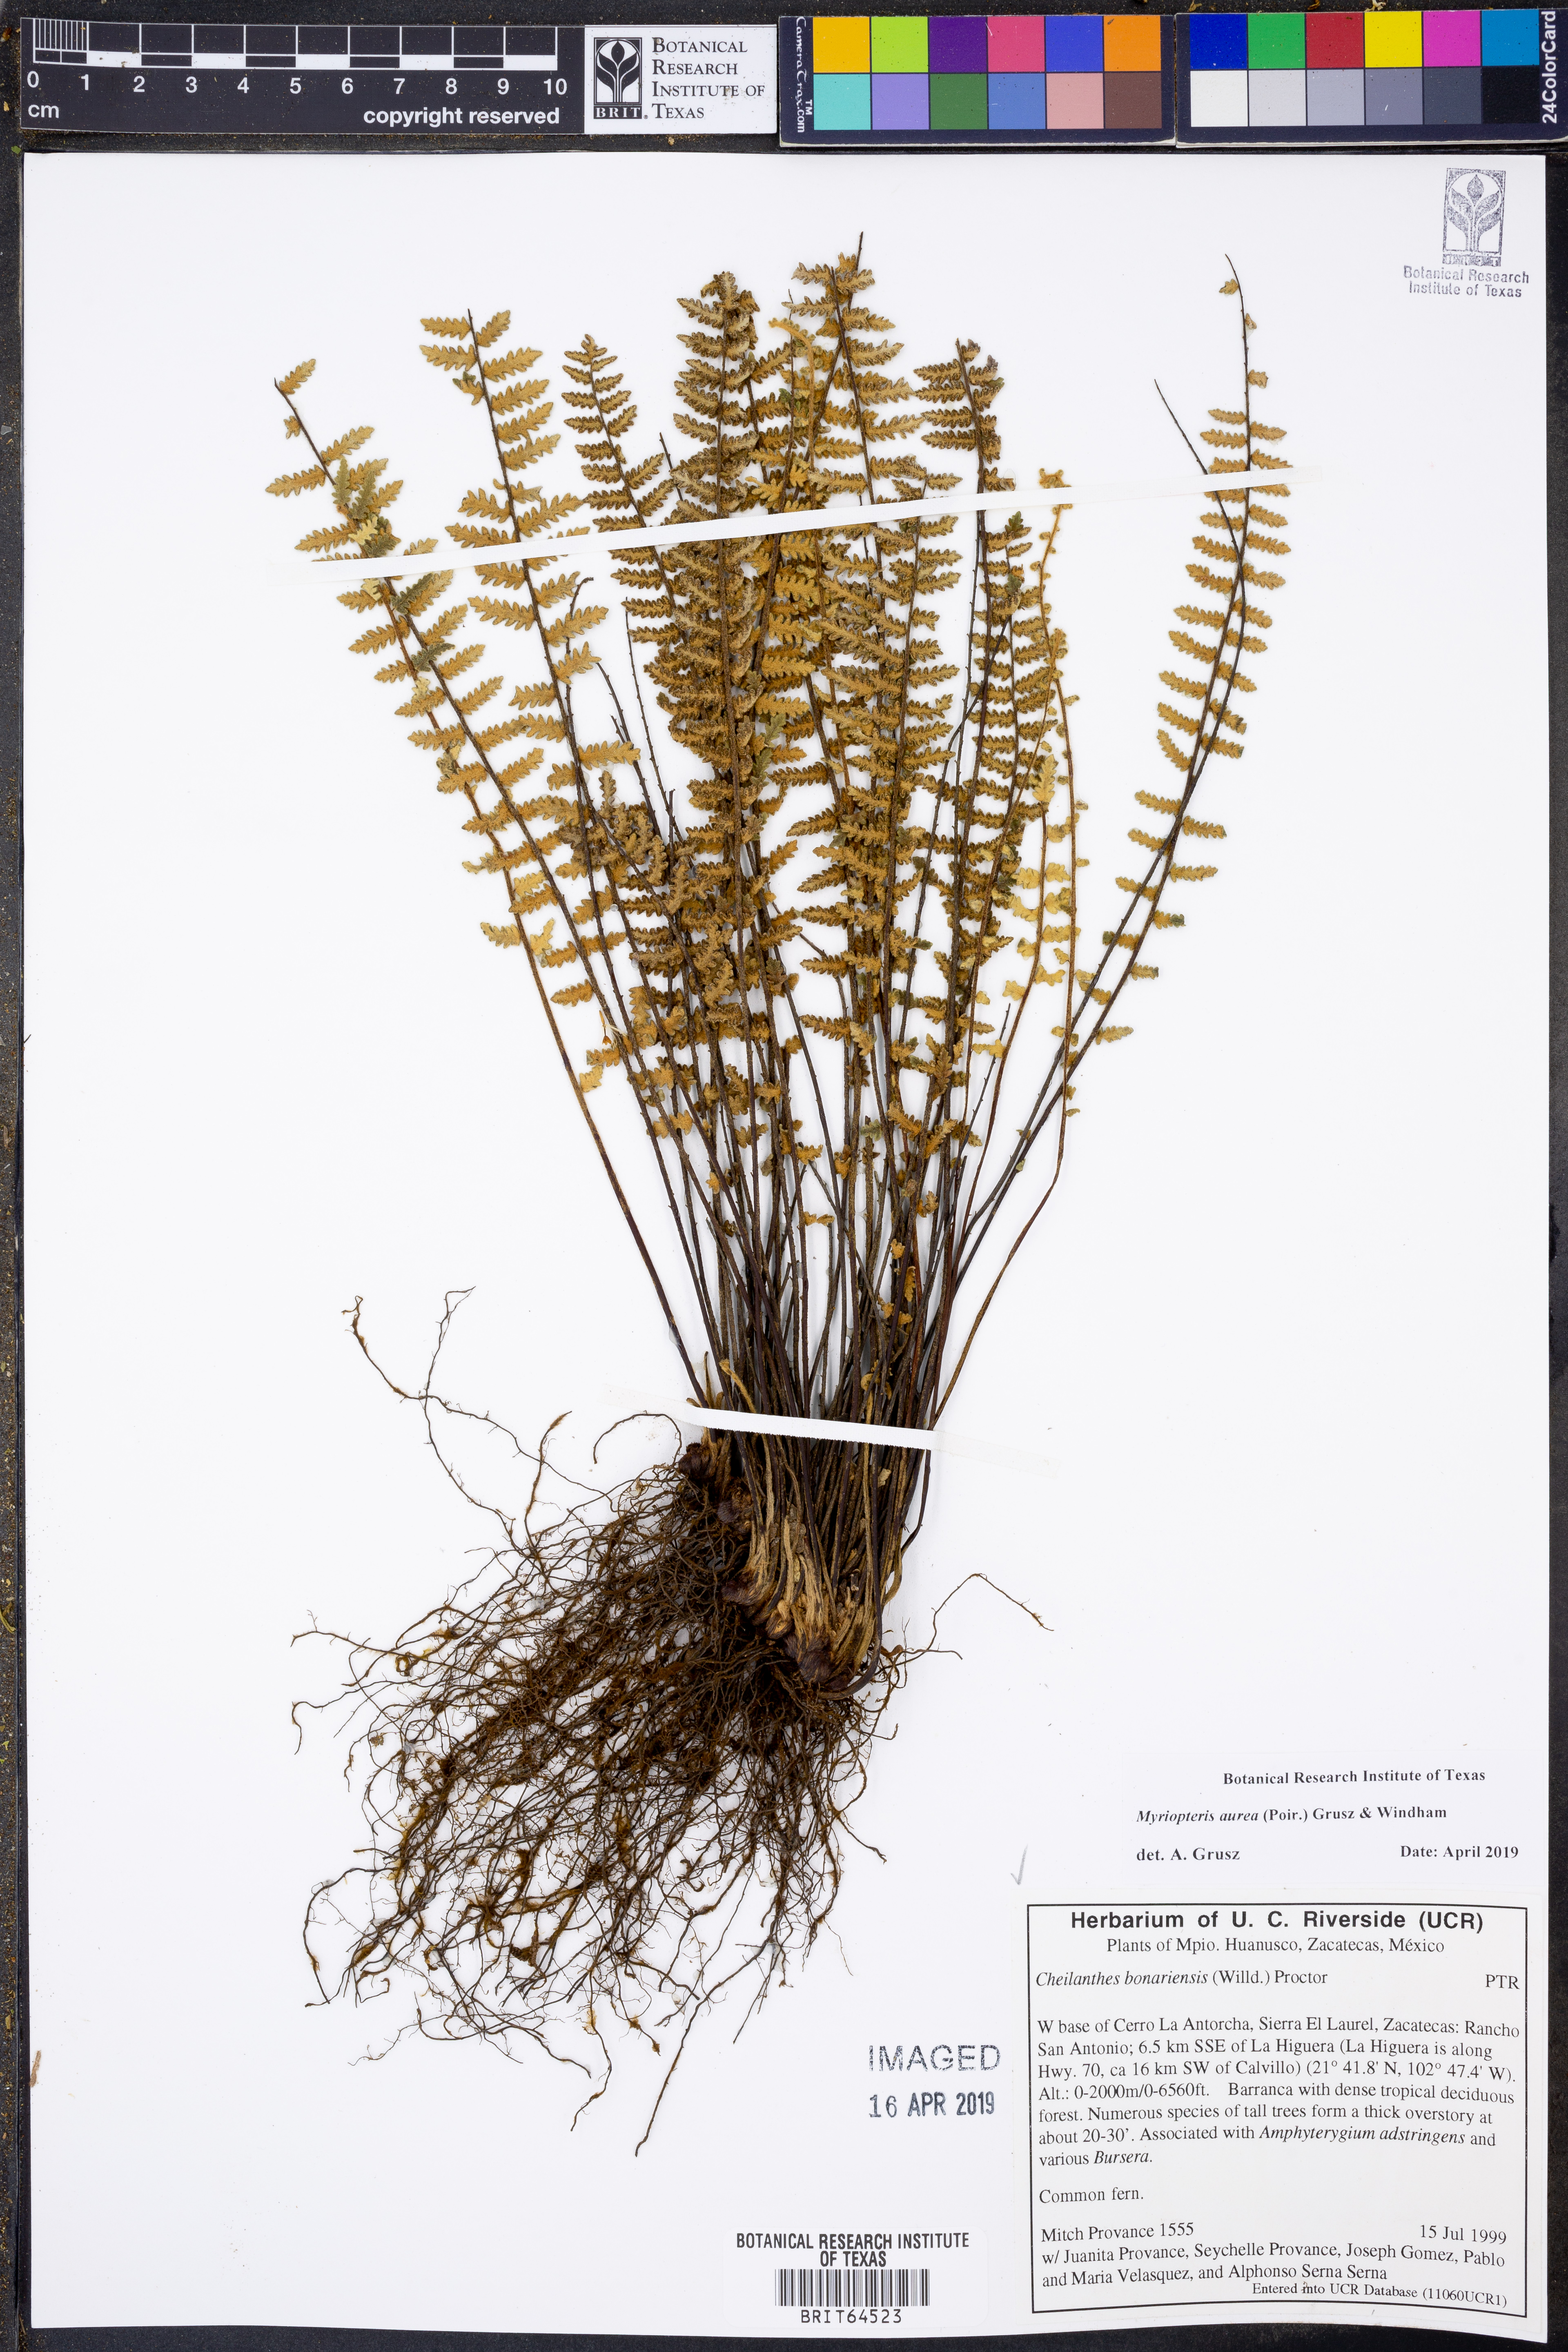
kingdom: Plantae
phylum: Tracheophyta
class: Polypodiopsida
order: Polypodiales
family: Pteridaceae
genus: Myriopteris
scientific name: Myriopteris aurea
